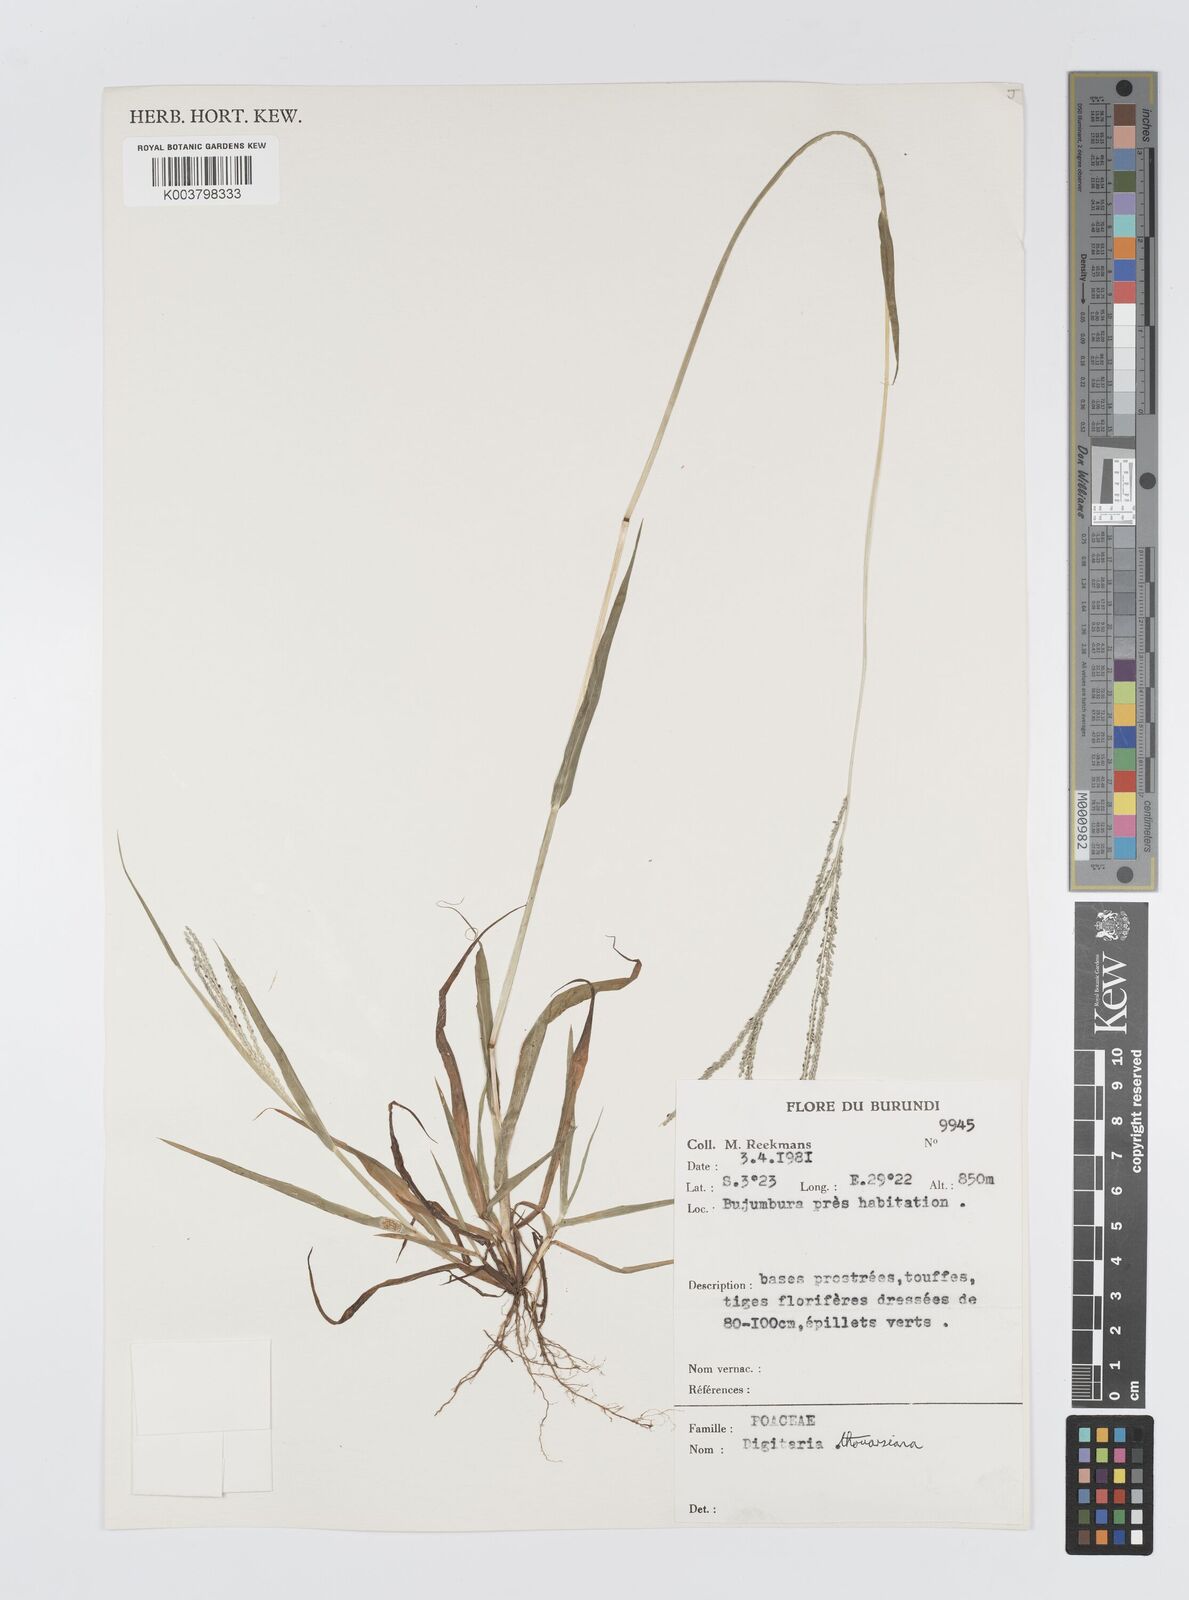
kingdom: Plantae
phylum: Tracheophyta
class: Liliopsida
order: Poales
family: Poaceae
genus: Digitaria
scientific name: Digitaria thouarsiana
